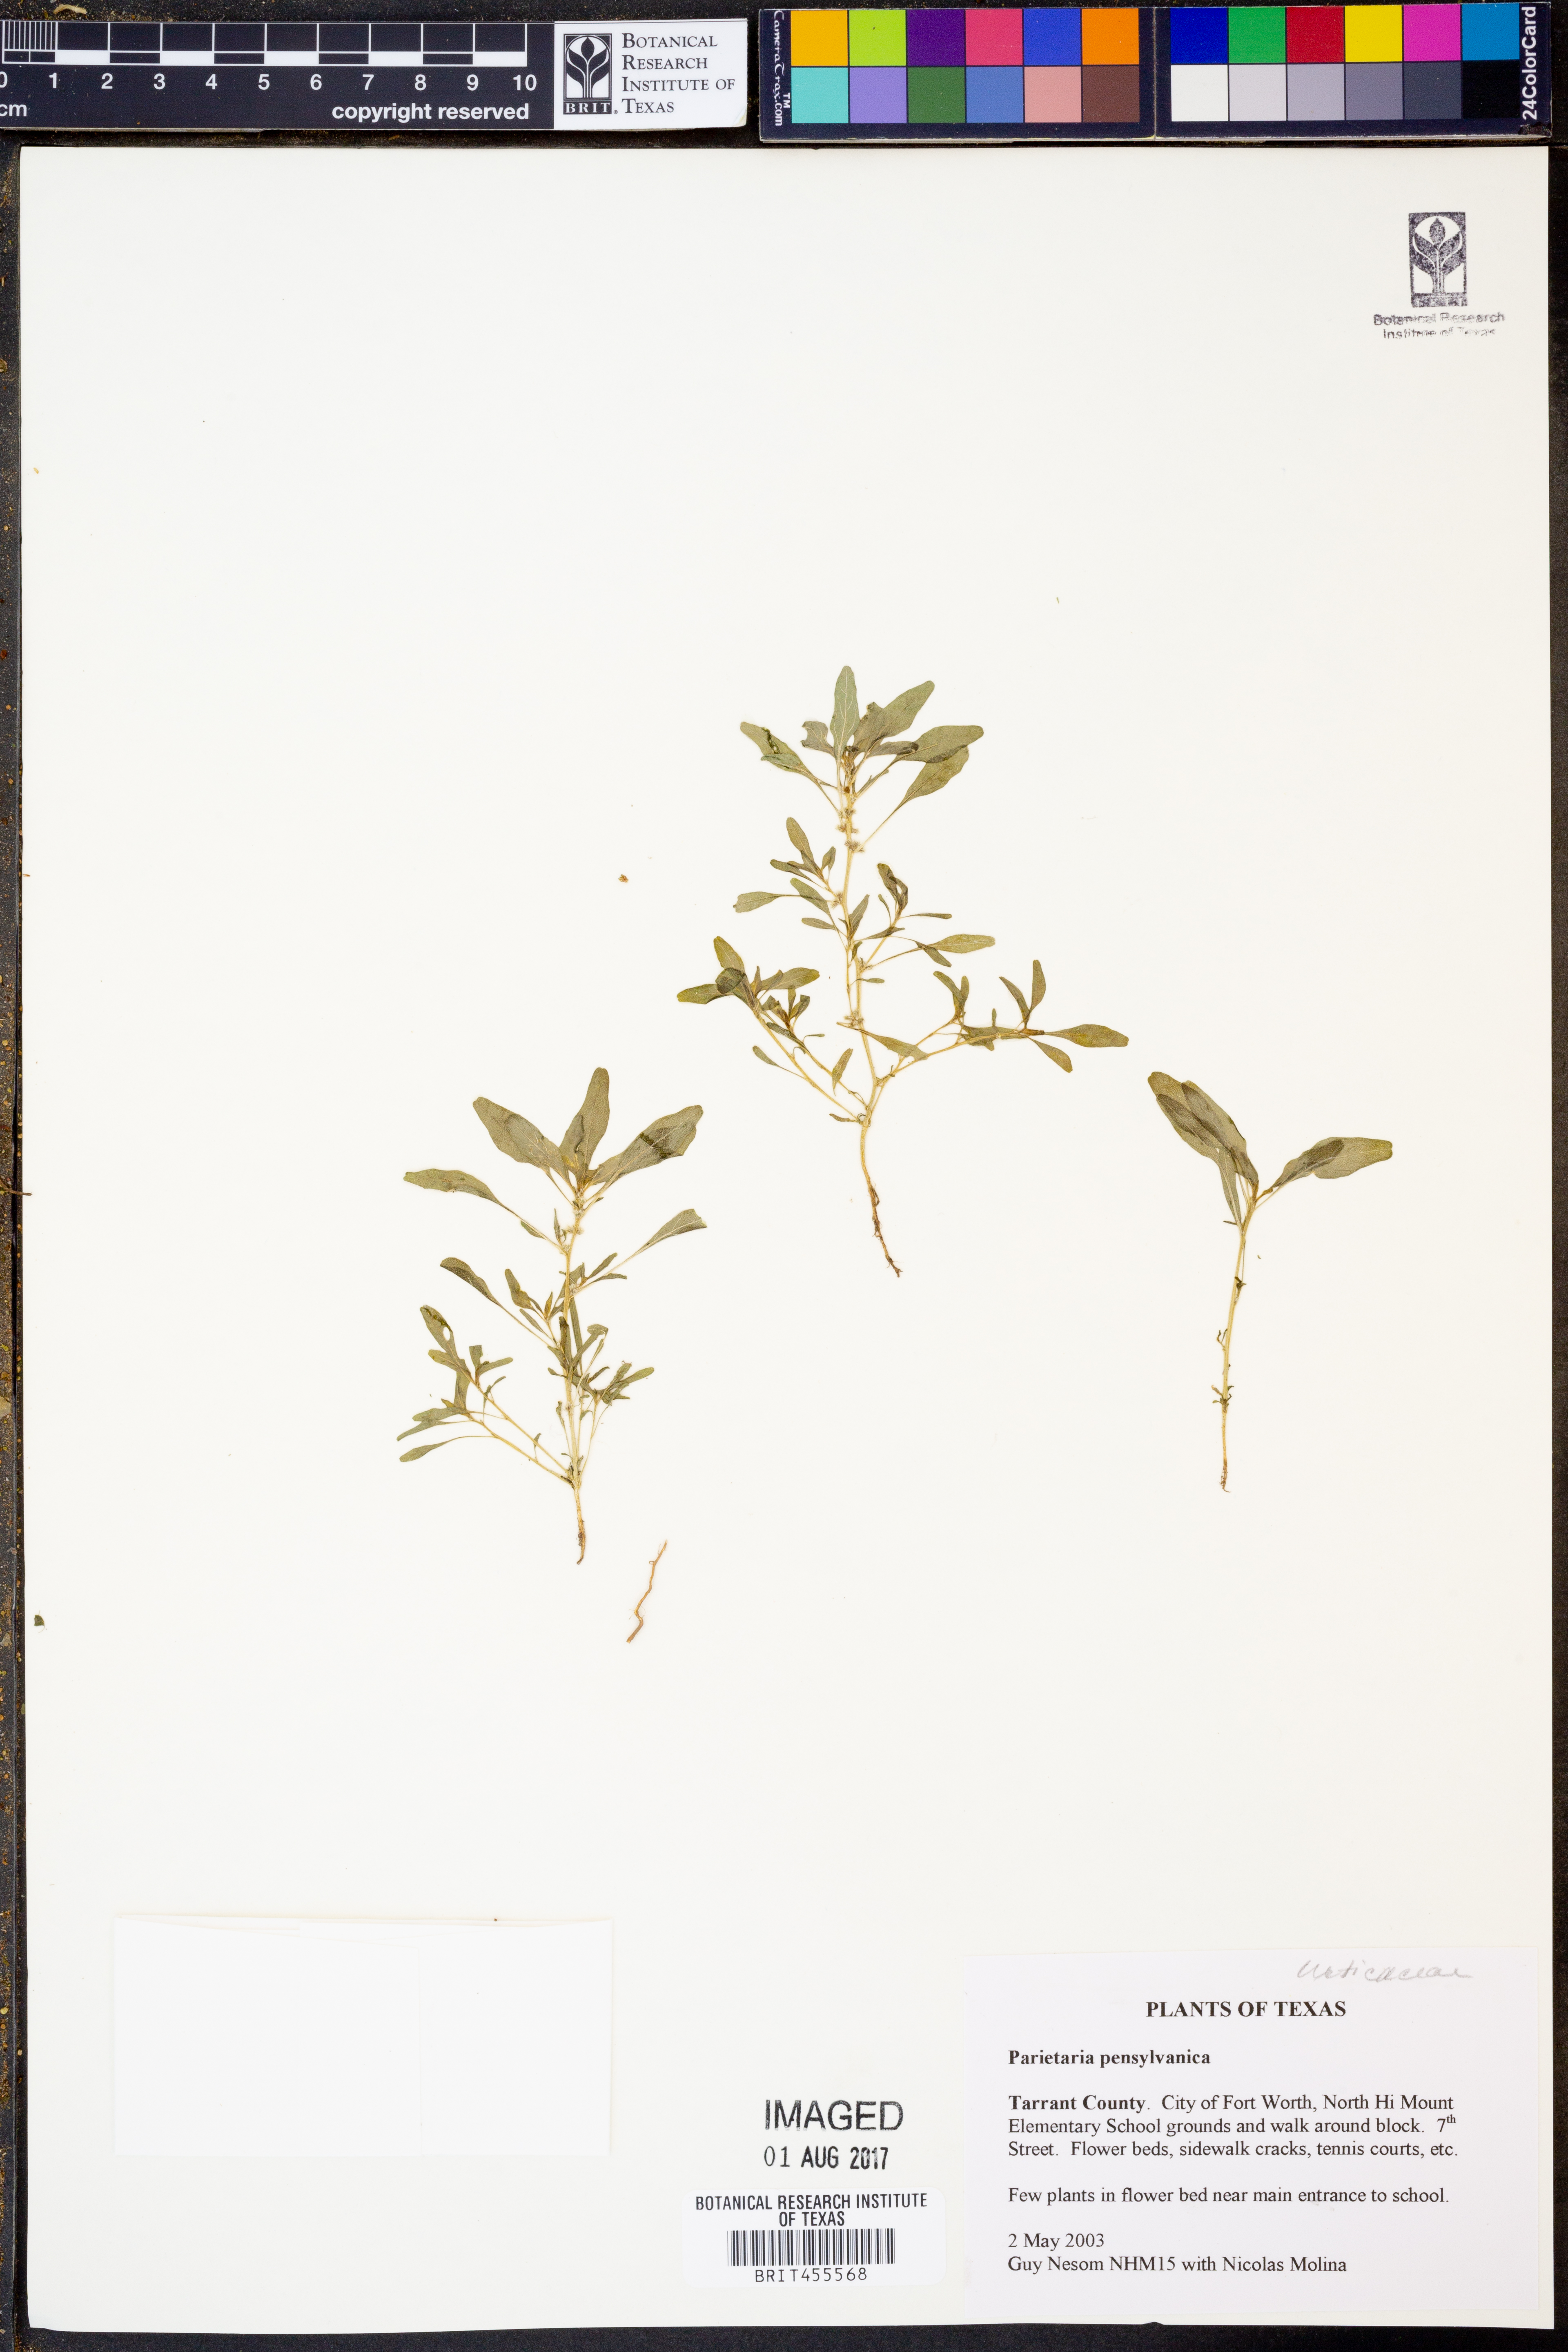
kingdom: Plantae
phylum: Tracheophyta
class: Magnoliopsida
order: Rosales
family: Urticaceae
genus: Parietaria
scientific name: Parietaria pensylvanica
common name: Pennsylvania pellitory
